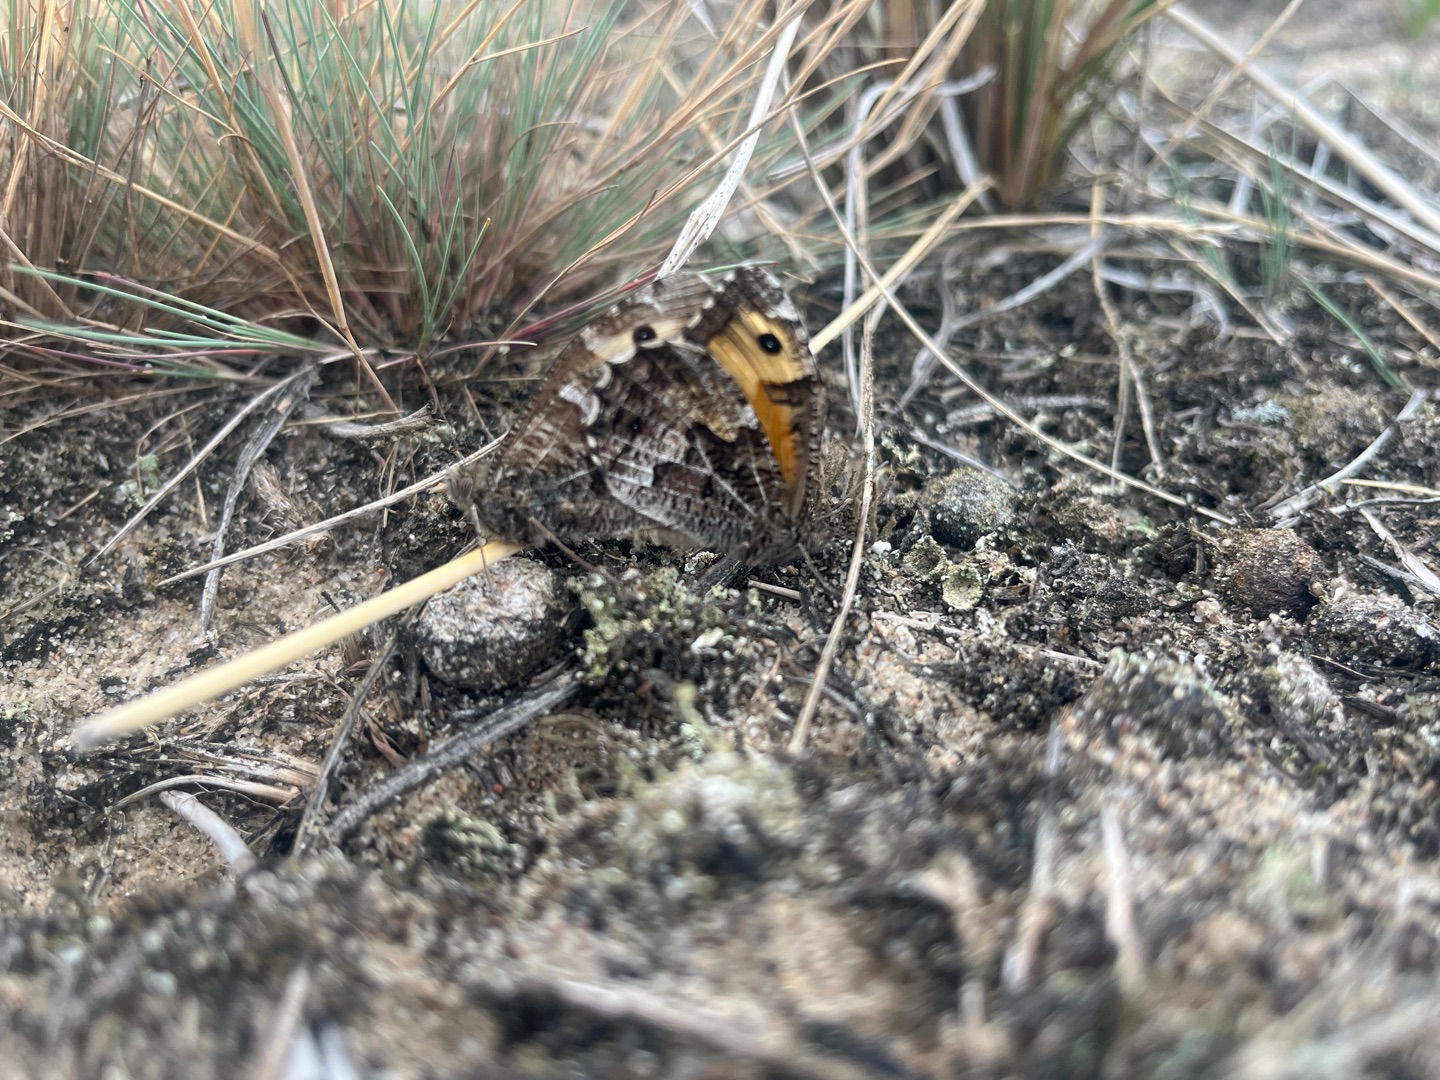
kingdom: Animalia
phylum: Arthropoda
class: Insecta
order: Lepidoptera
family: Nymphalidae
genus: Hipparchia
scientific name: Hipparchia semele
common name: Sandrandøje
